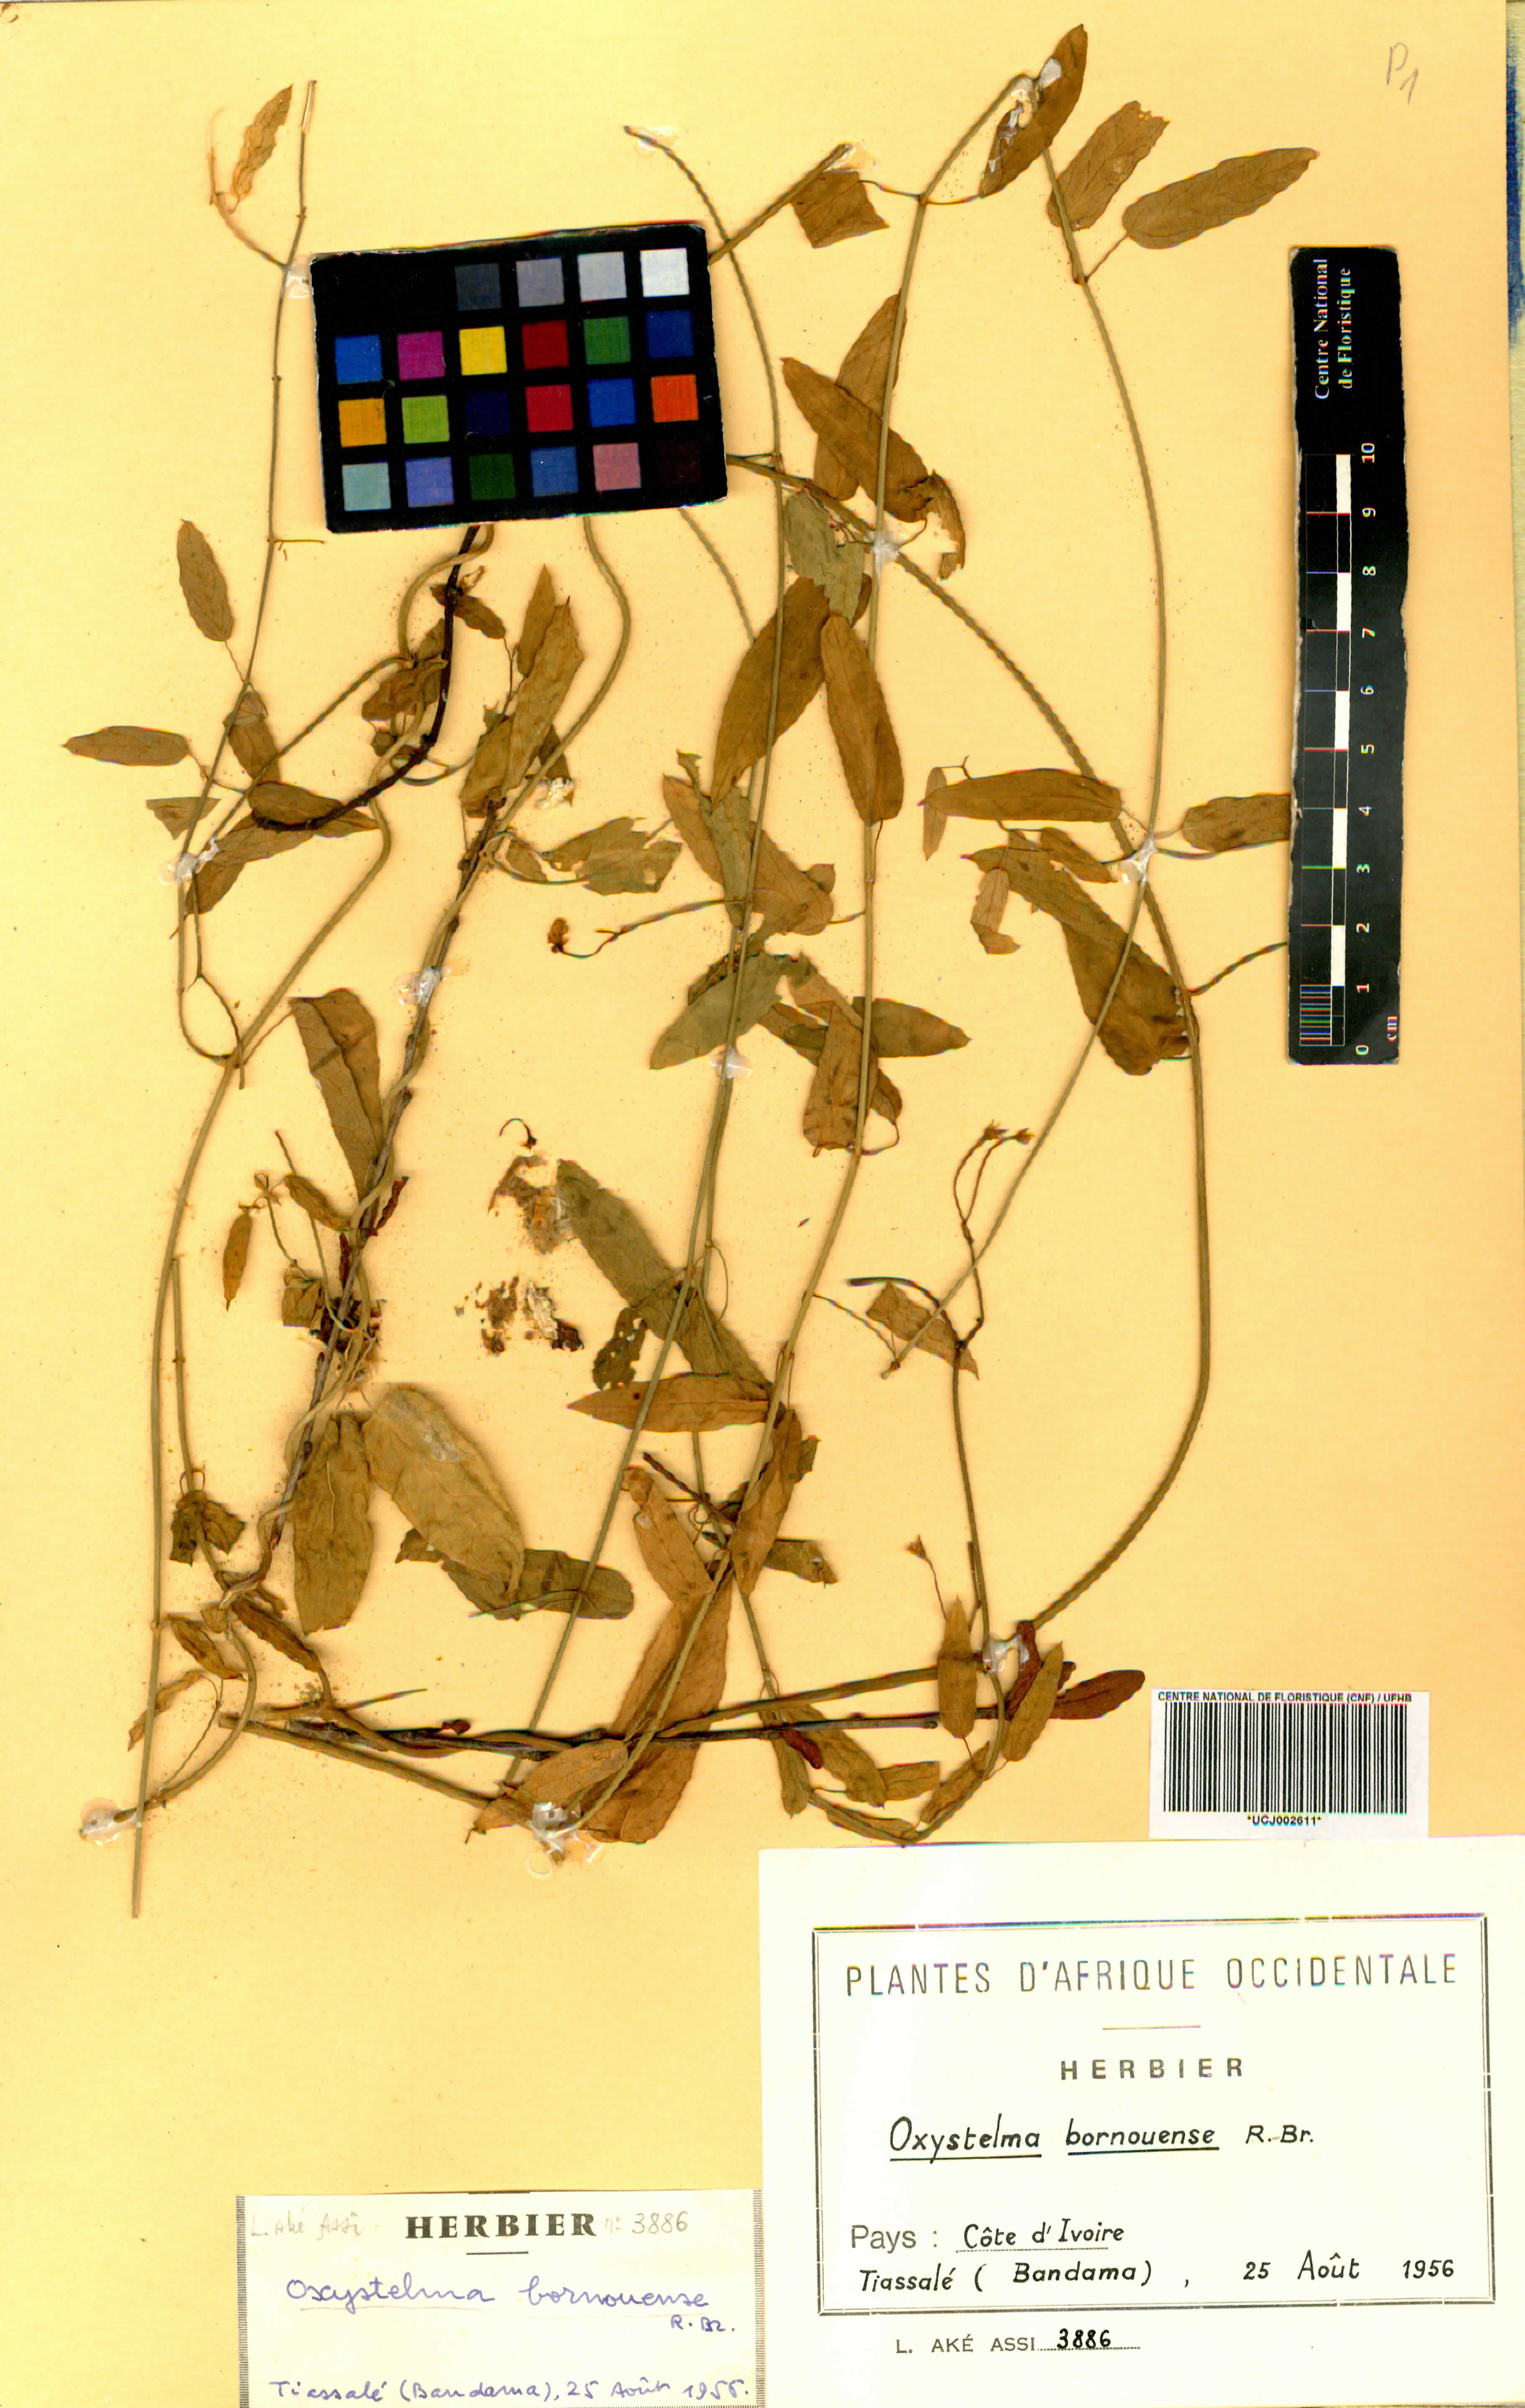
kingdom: Plantae
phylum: Tracheophyta
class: Magnoliopsida
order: Gentianales
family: Apocynaceae
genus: Oxystelma
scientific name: Oxystelma bornouense
